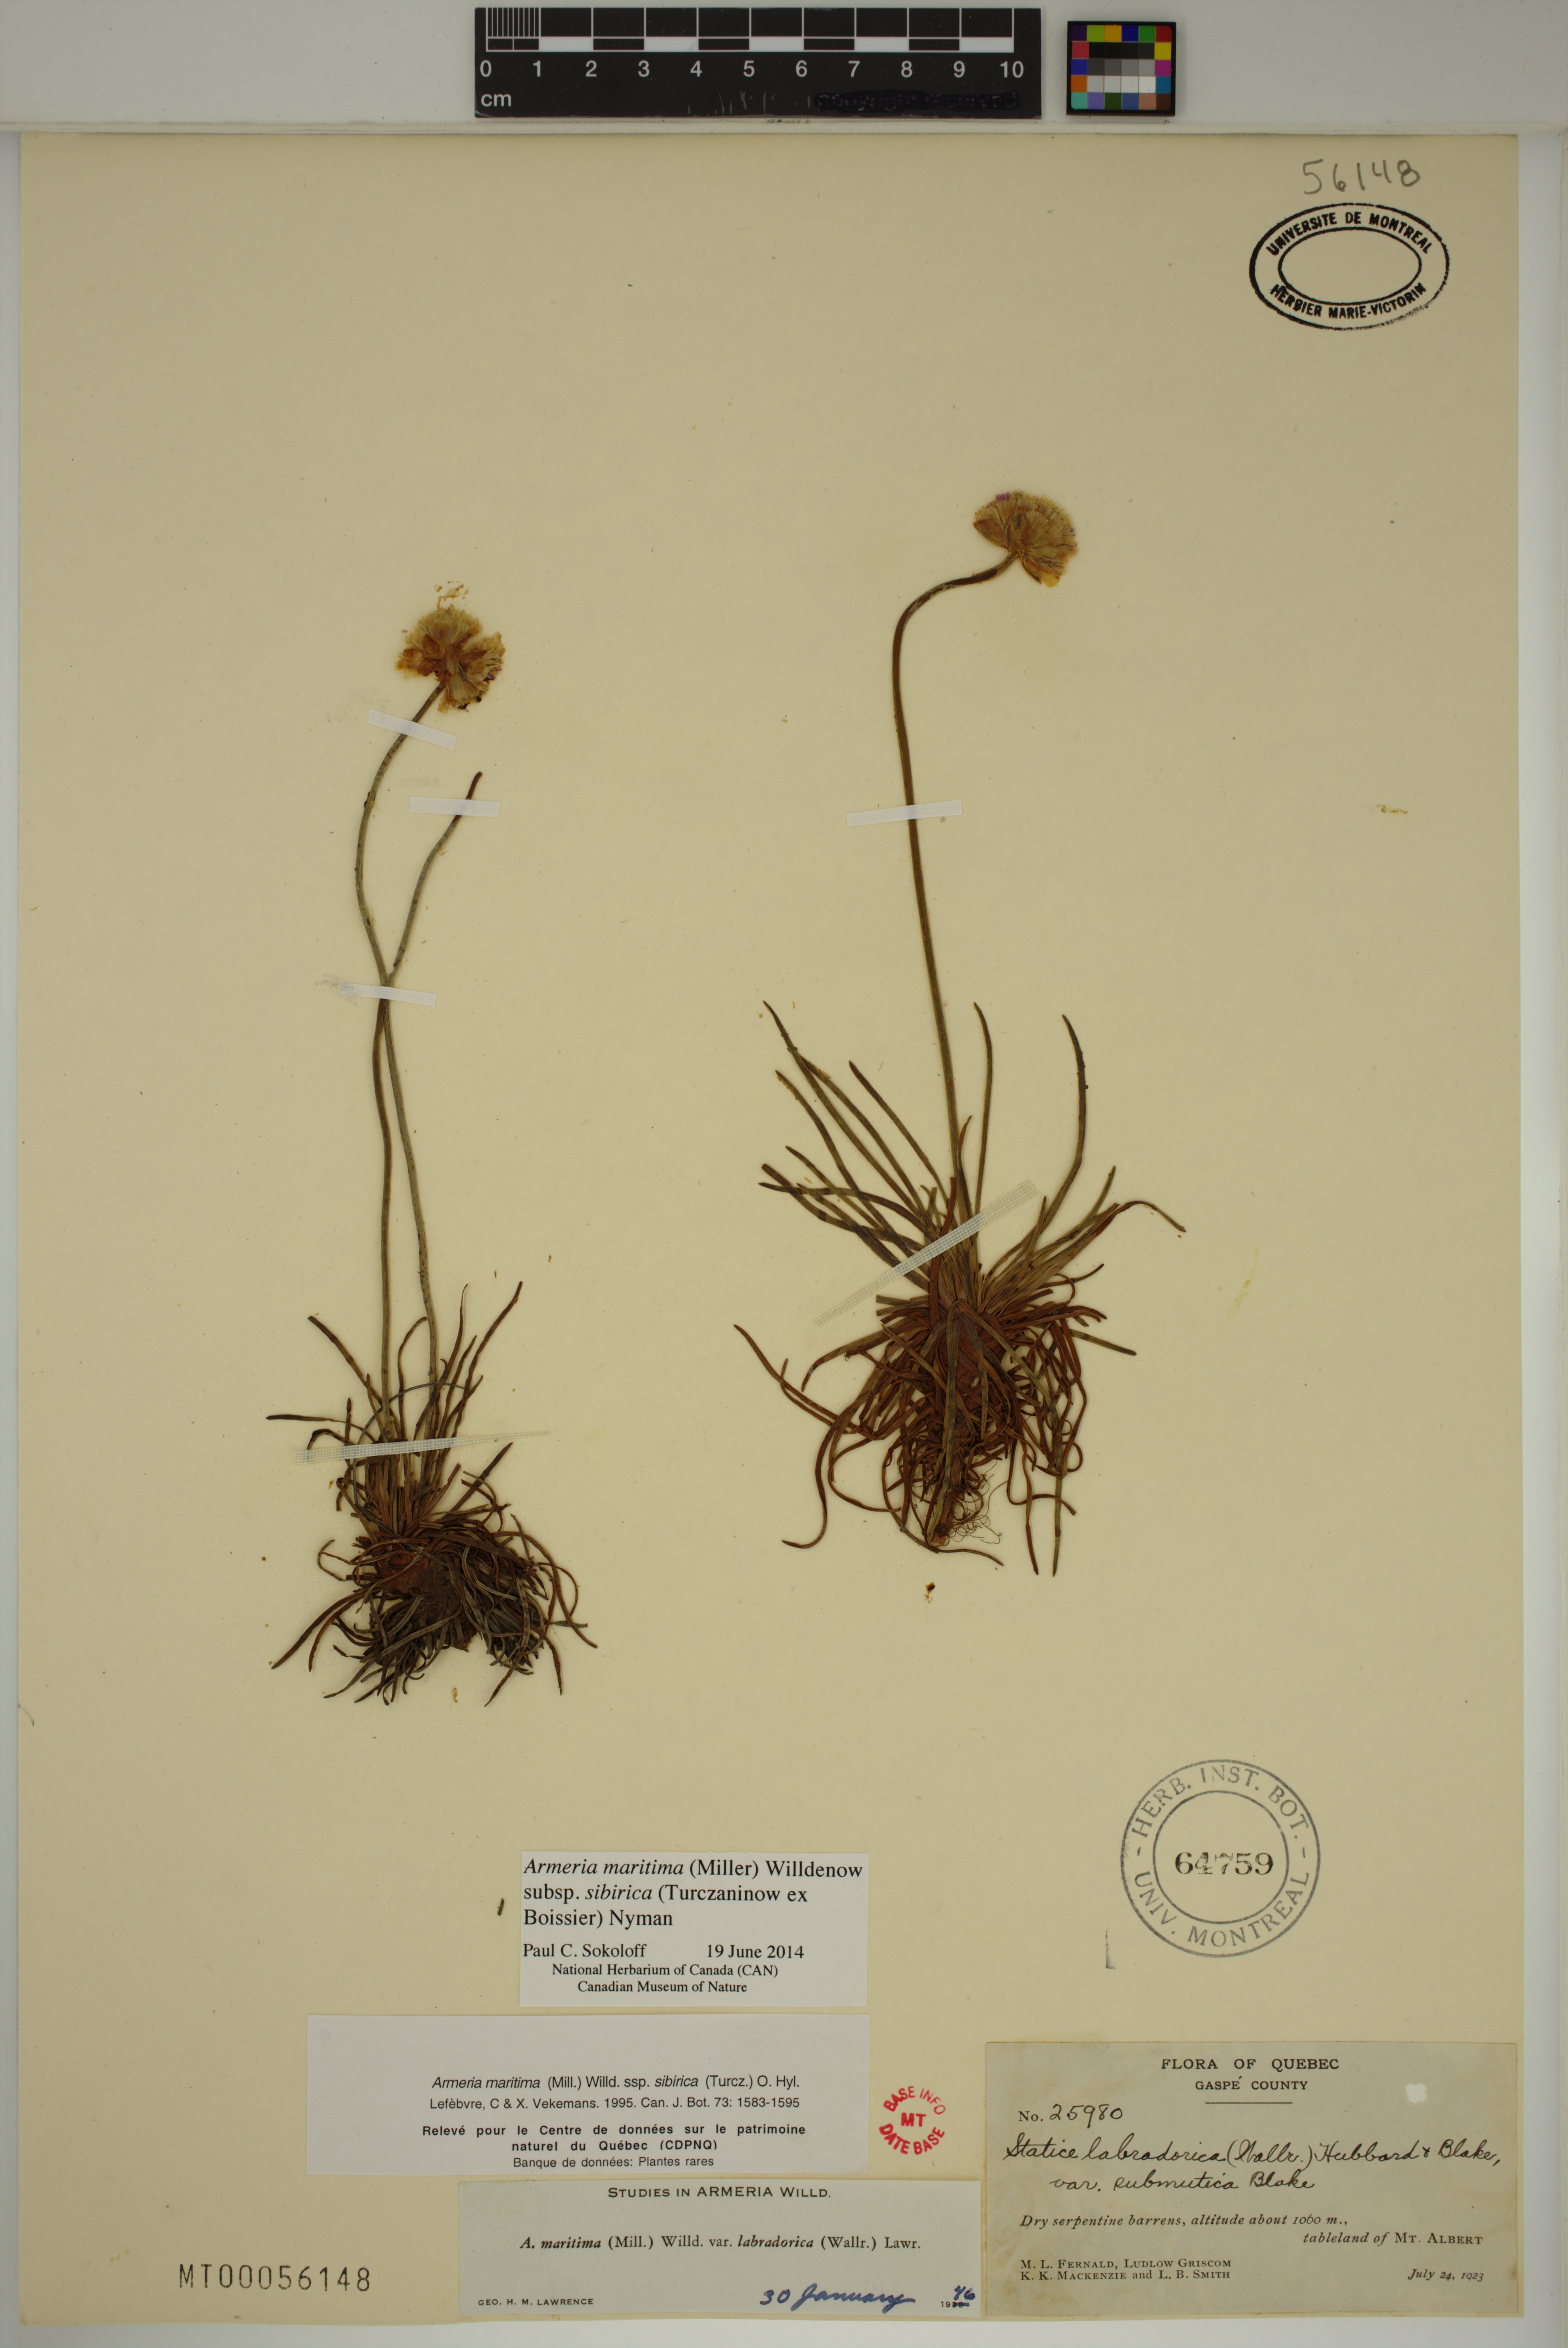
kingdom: Plantae
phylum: Tracheophyta
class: Magnoliopsida
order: Caryophyllales
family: Plumbaginaceae
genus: Armeria
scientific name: Armeria maritima
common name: Thrift
